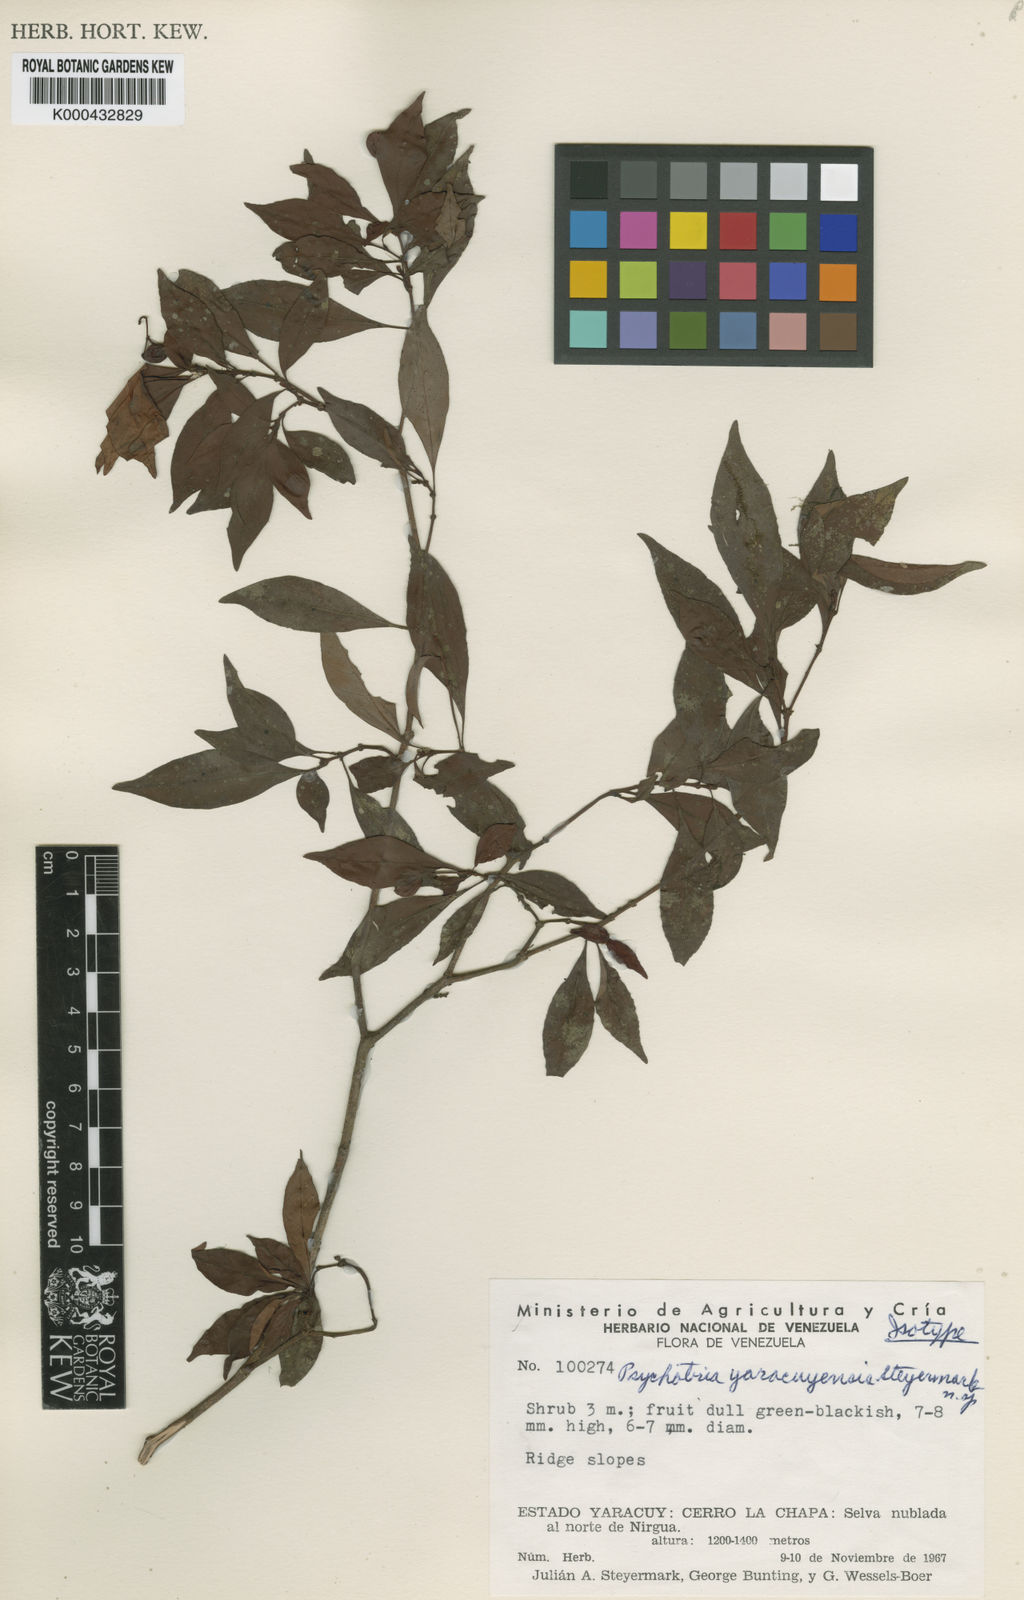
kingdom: Plantae
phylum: Tracheophyta
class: Magnoliopsida
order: Gentianales
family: Rubiaceae
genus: Psychotria
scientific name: Psychotria yaracuyensis
